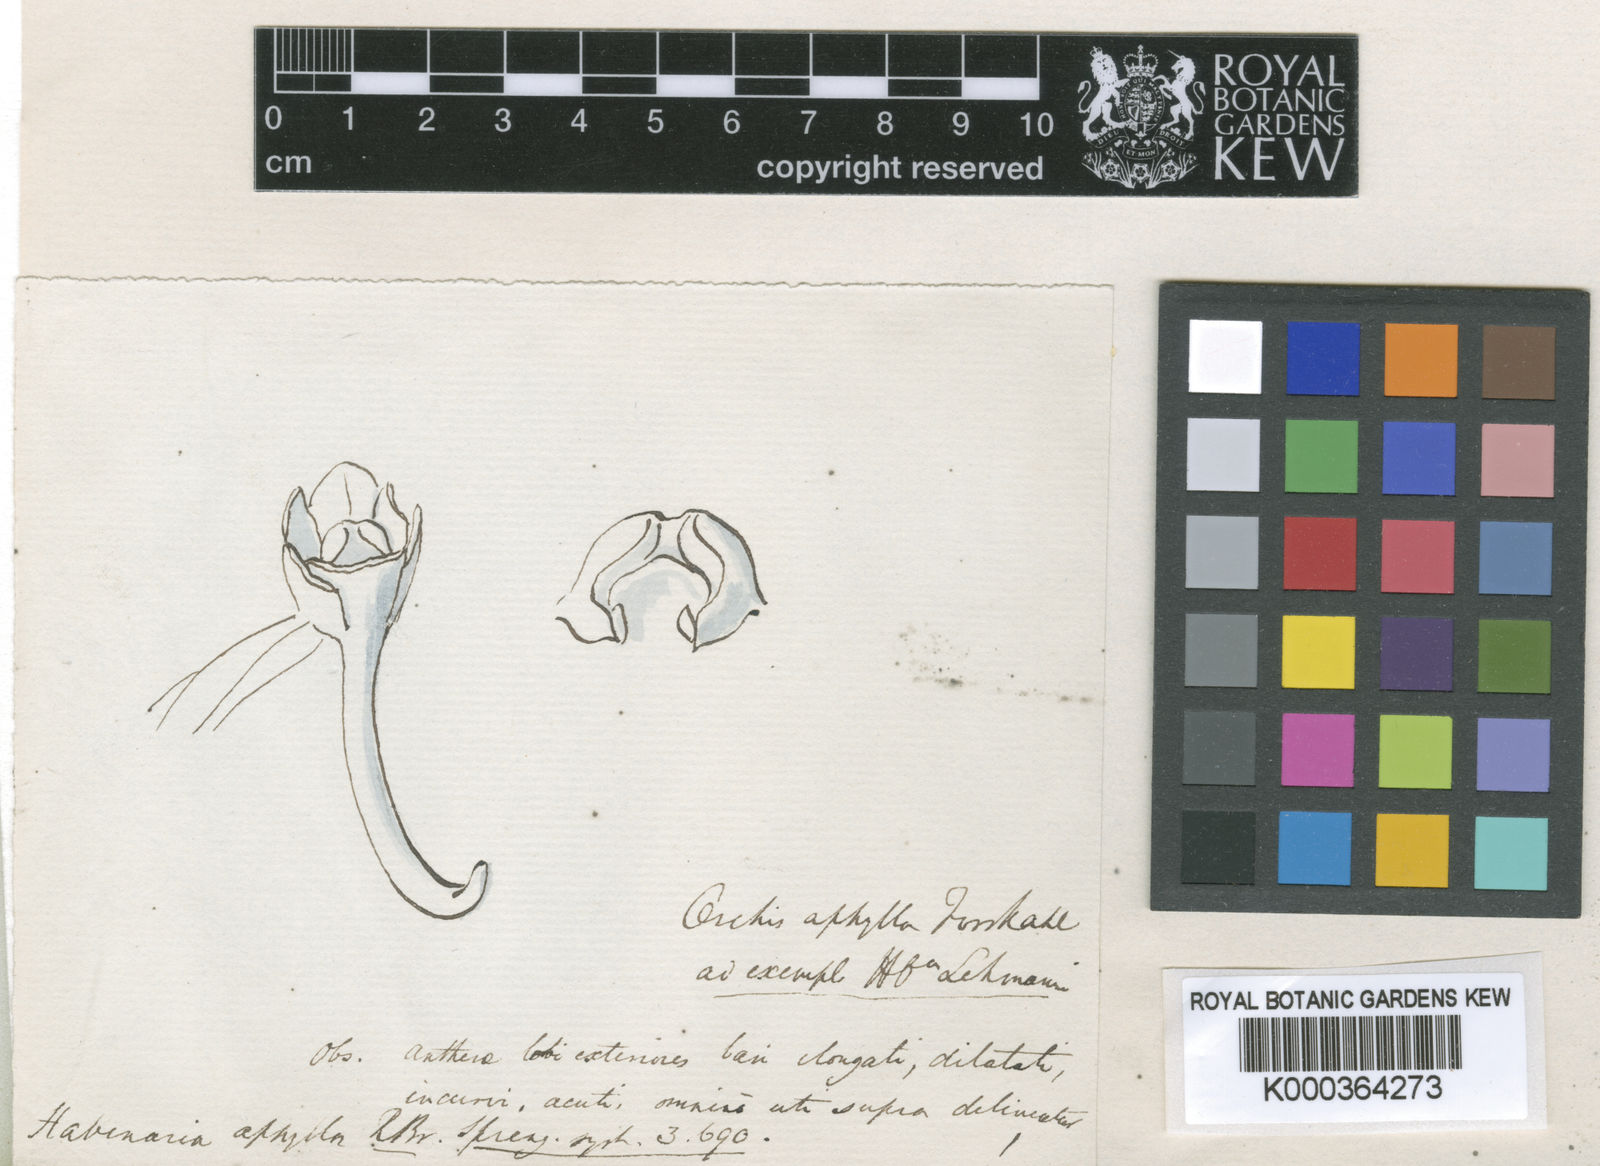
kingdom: Plantae
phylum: Tracheophyta
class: Liliopsida
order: Asparagales
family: Orchidaceae
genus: Holothrix
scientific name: Holothrix
